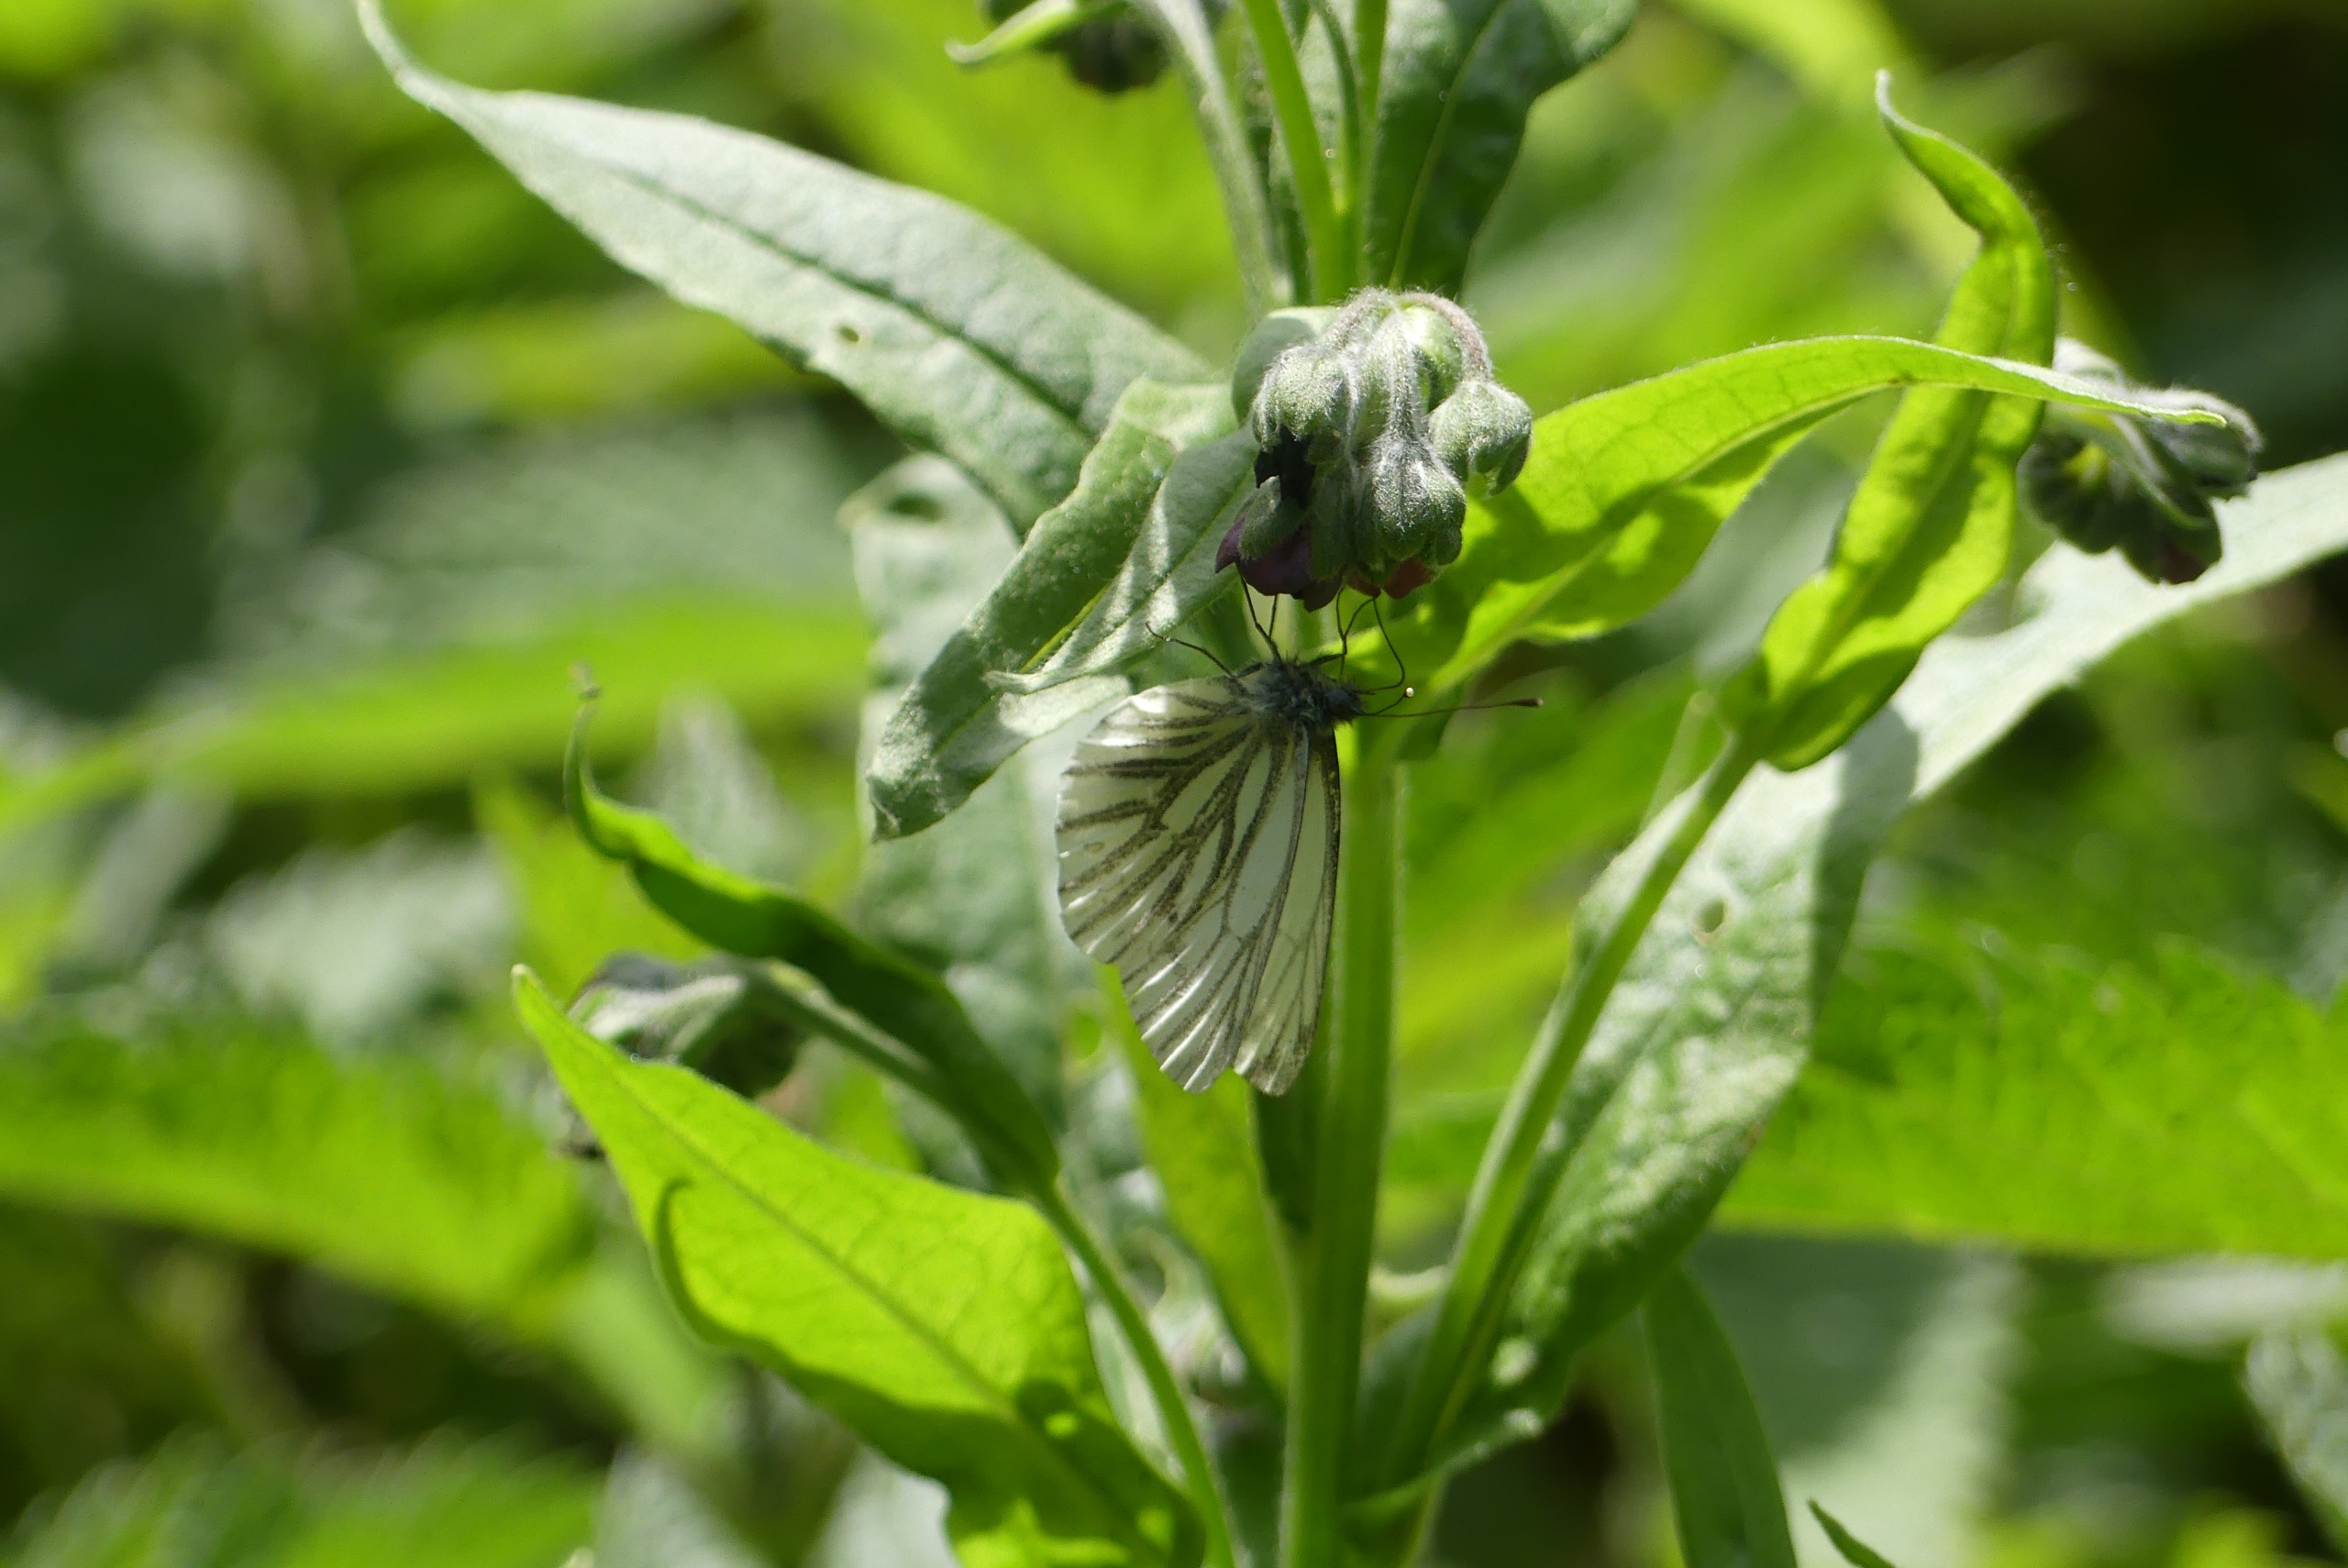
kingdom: Animalia
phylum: Arthropoda
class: Insecta
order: Lepidoptera
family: Pieridae
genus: Pieris
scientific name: Pieris napi
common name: Grønåret kålsommerfugl
